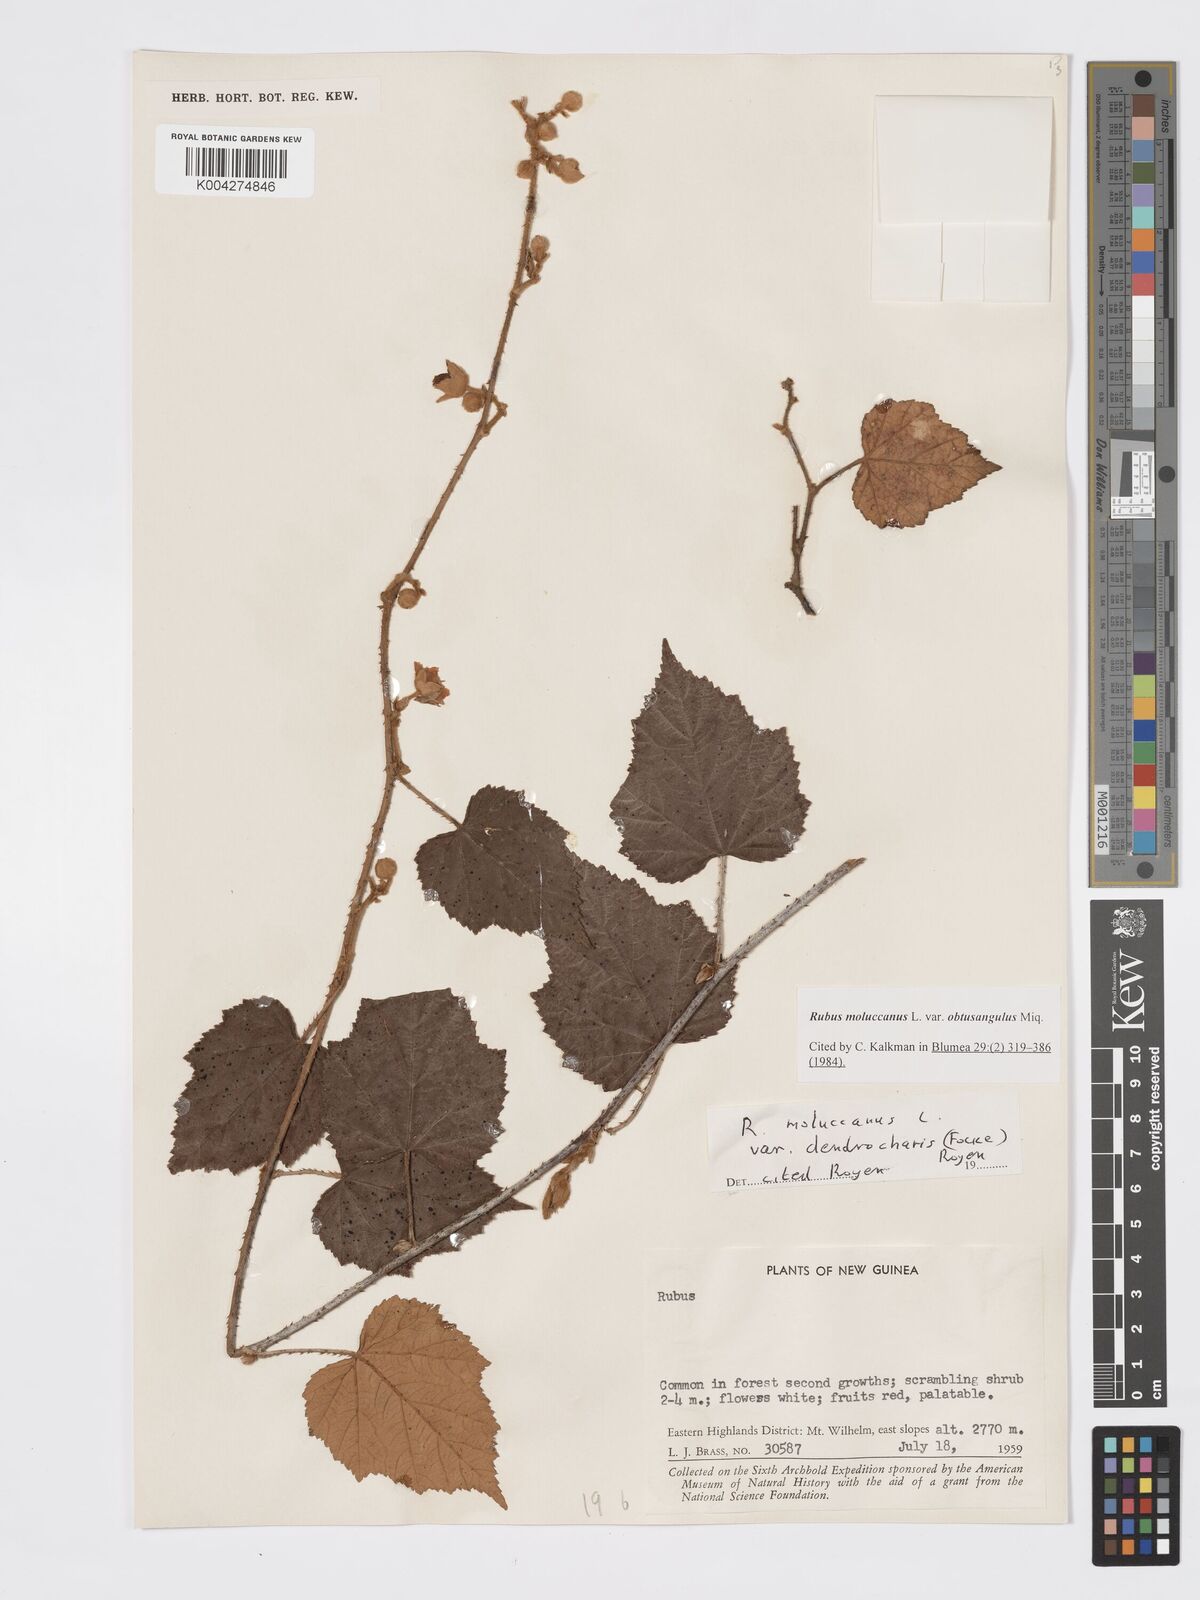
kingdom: Plantae
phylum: Tracheophyta
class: Magnoliopsida
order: Rosales
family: Rosaceae
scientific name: Rosaceae
